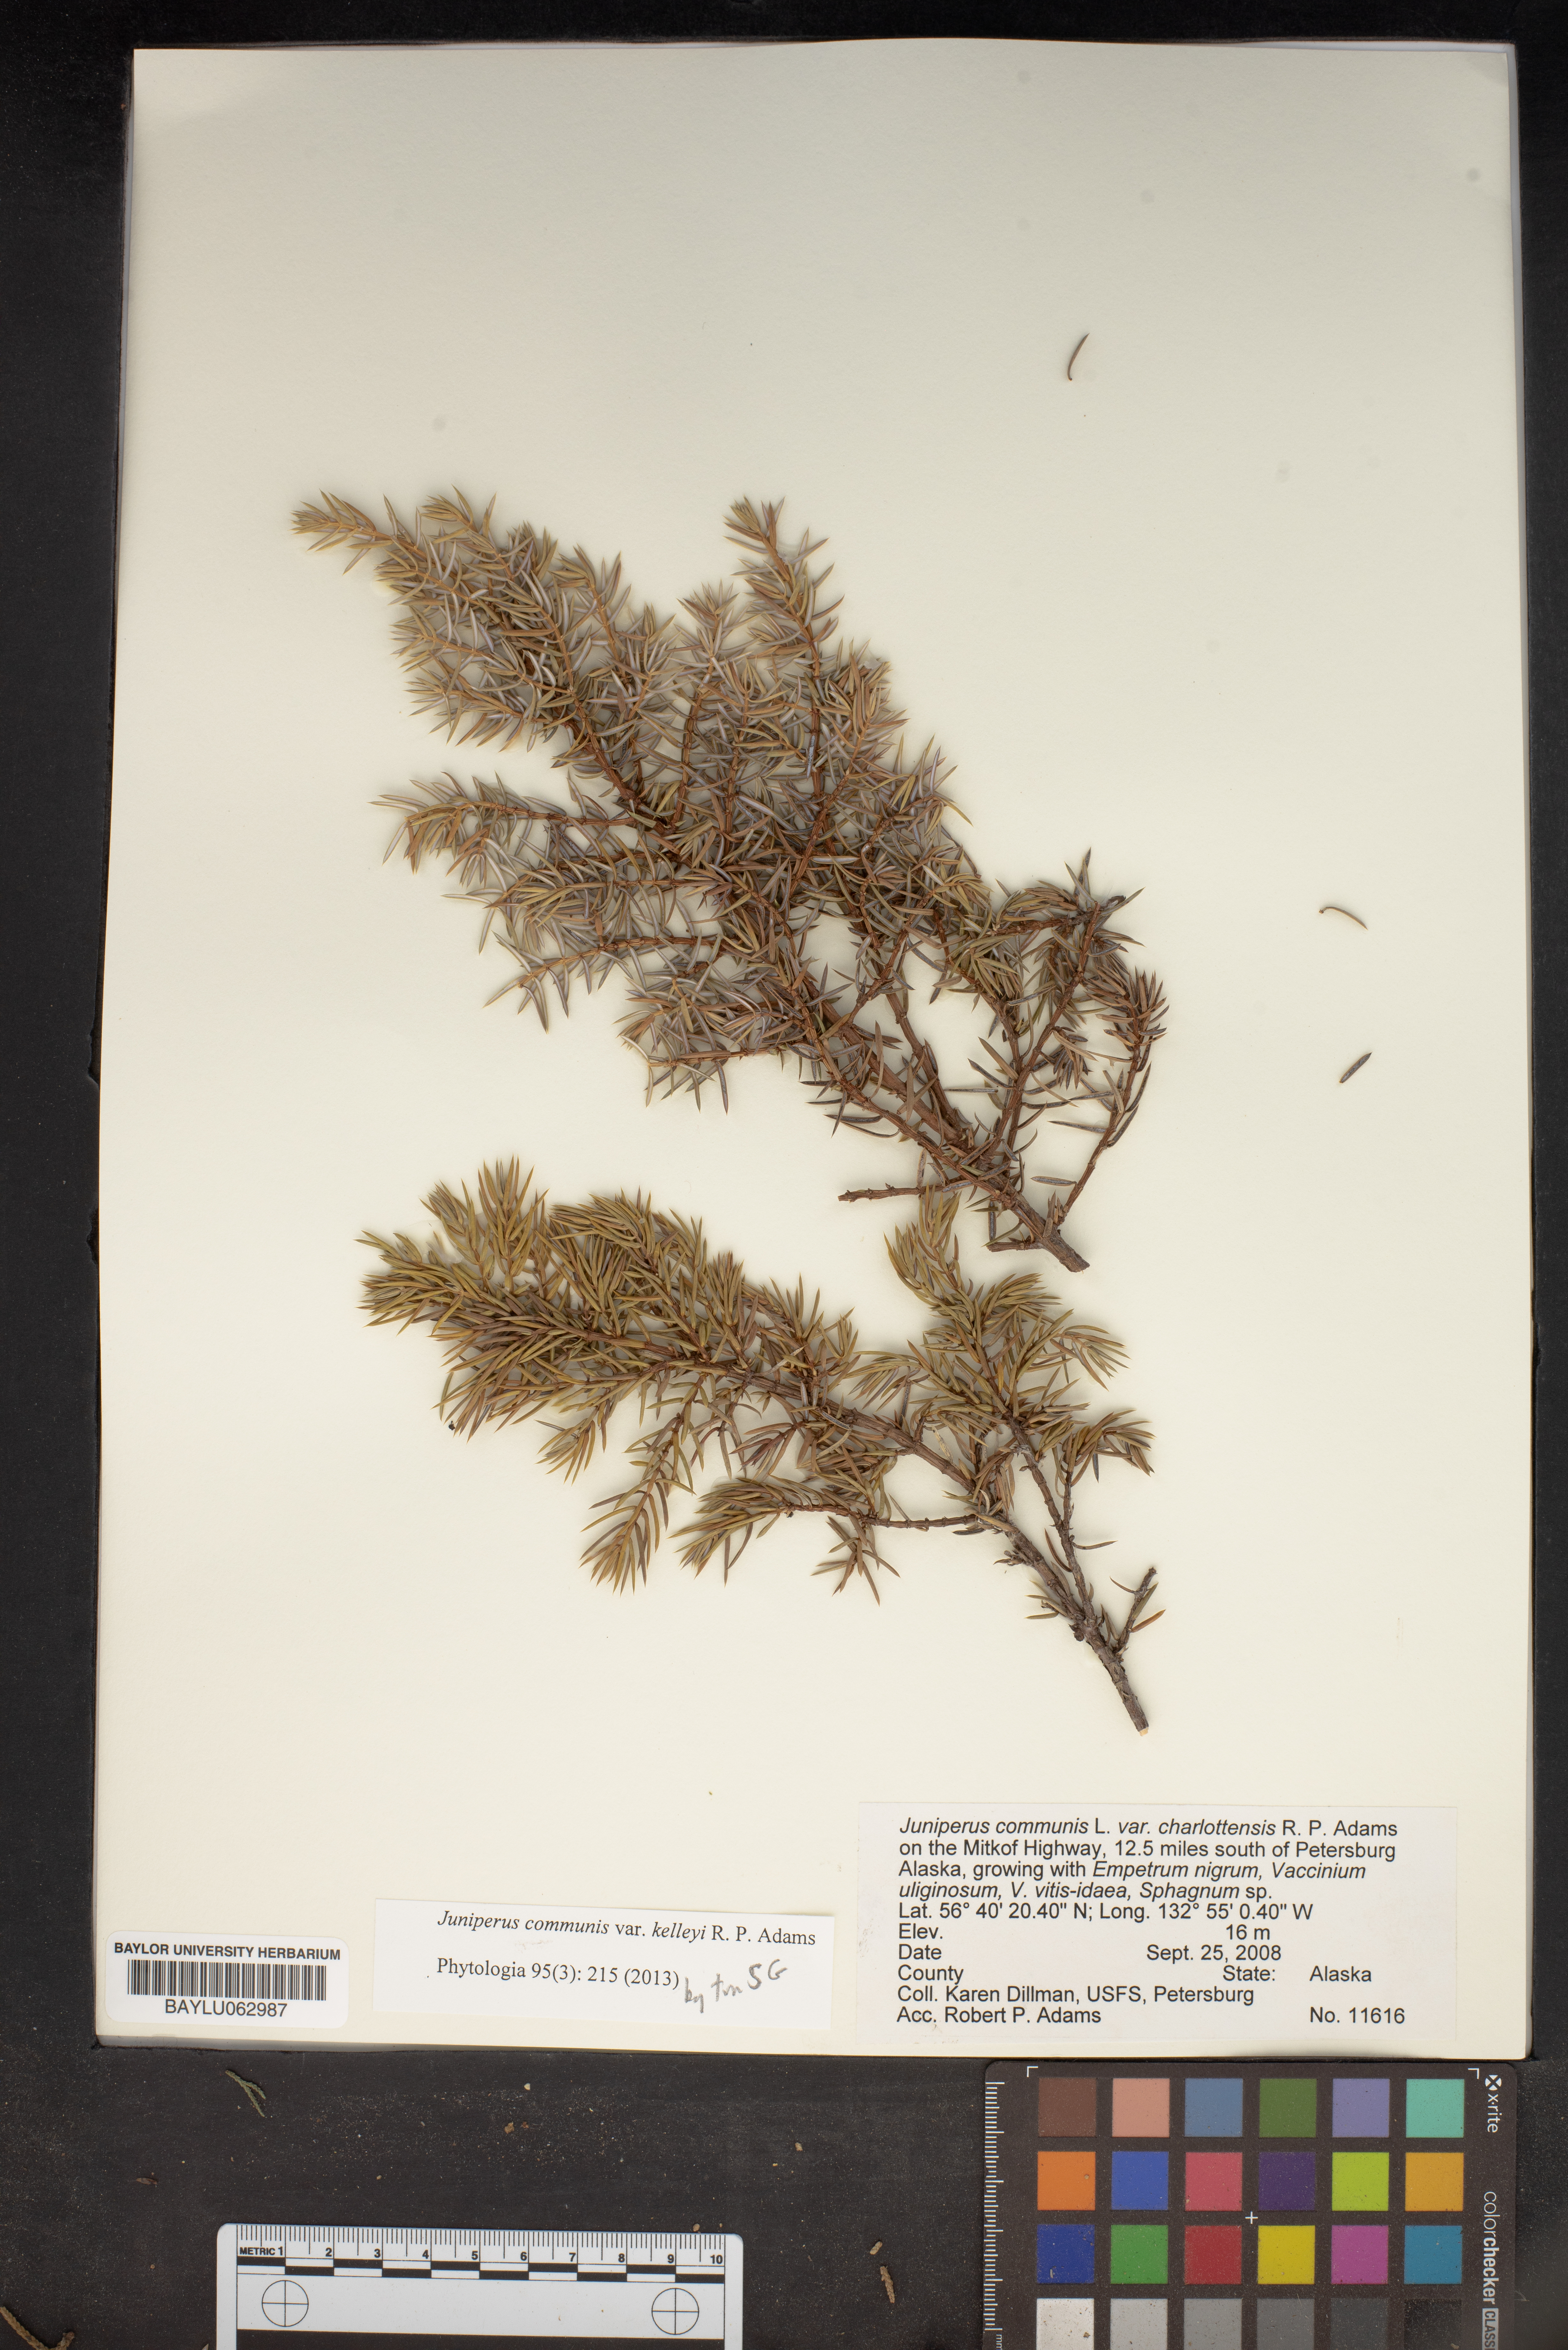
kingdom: Plantae
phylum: Tracheophyta
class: Pinopsida
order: Pinales
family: Cupressaceae
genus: Juniperus
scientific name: Juniperus communis
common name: Common juniper
